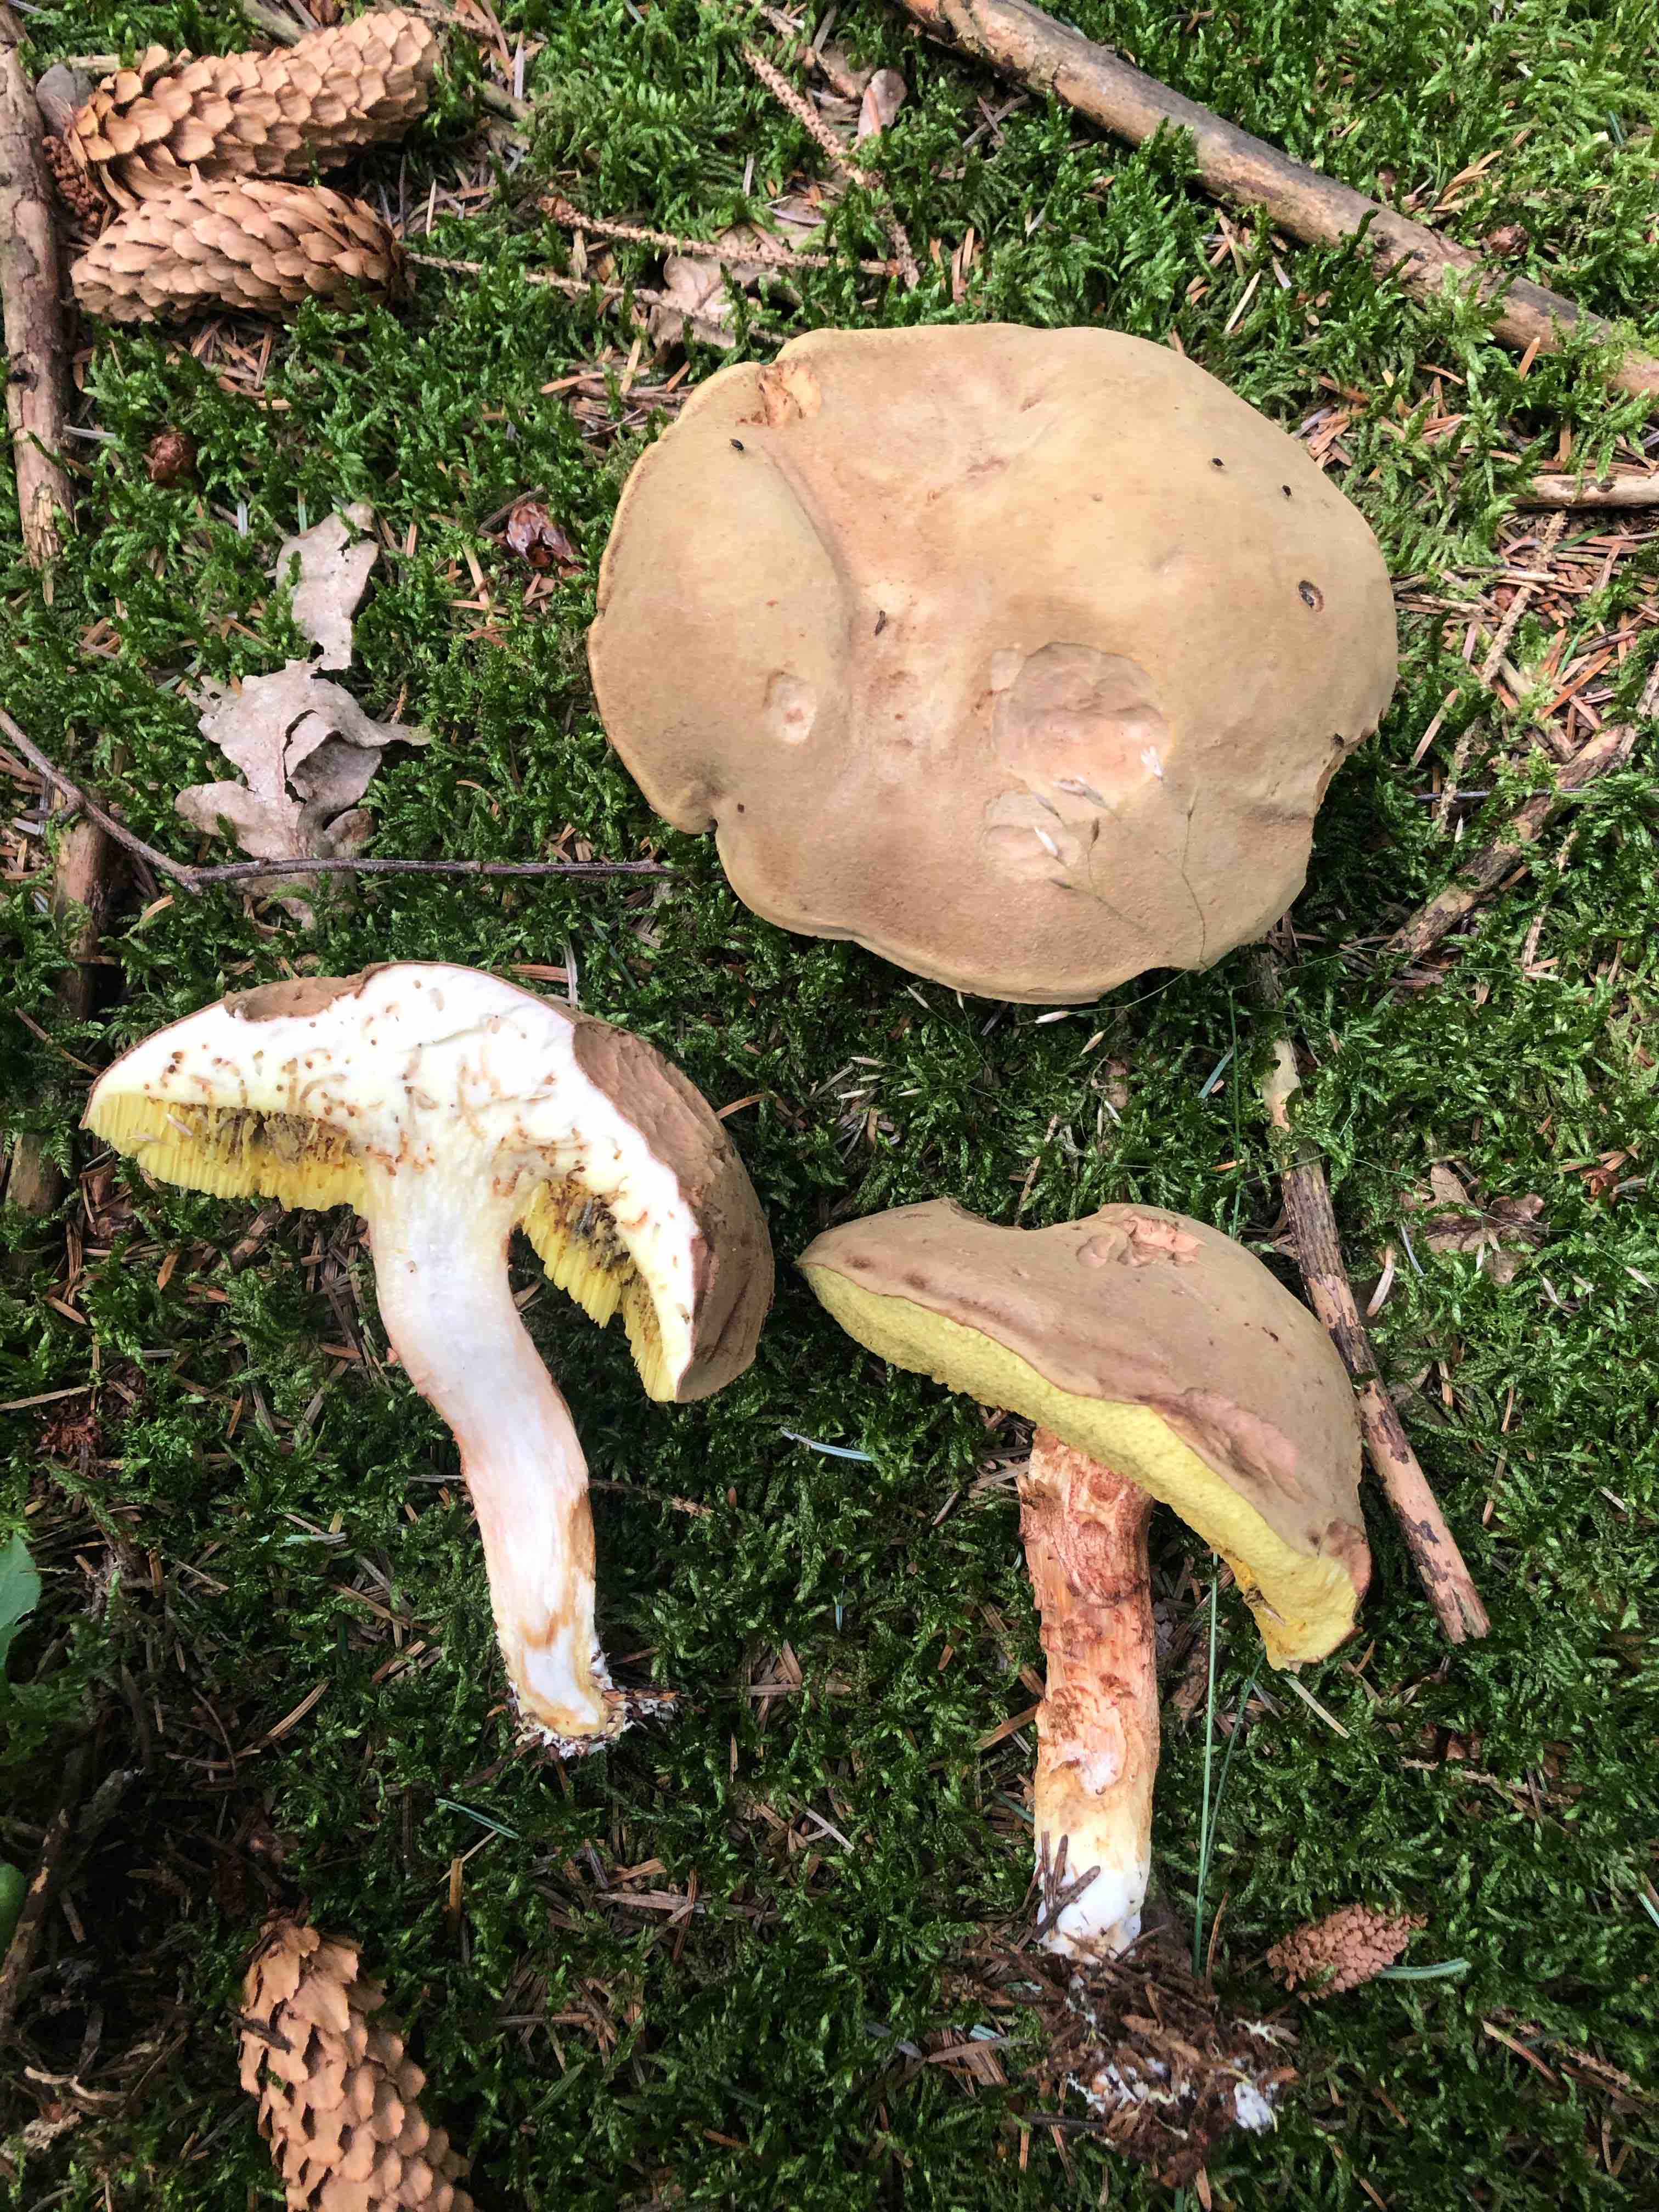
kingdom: Fungi
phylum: Basidiomycota
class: Agaricomycetes
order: Boletales
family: Boletaceae
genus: Xerocomus
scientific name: Xerocomus ferrugineus
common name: vaskeskinds-rørhat
